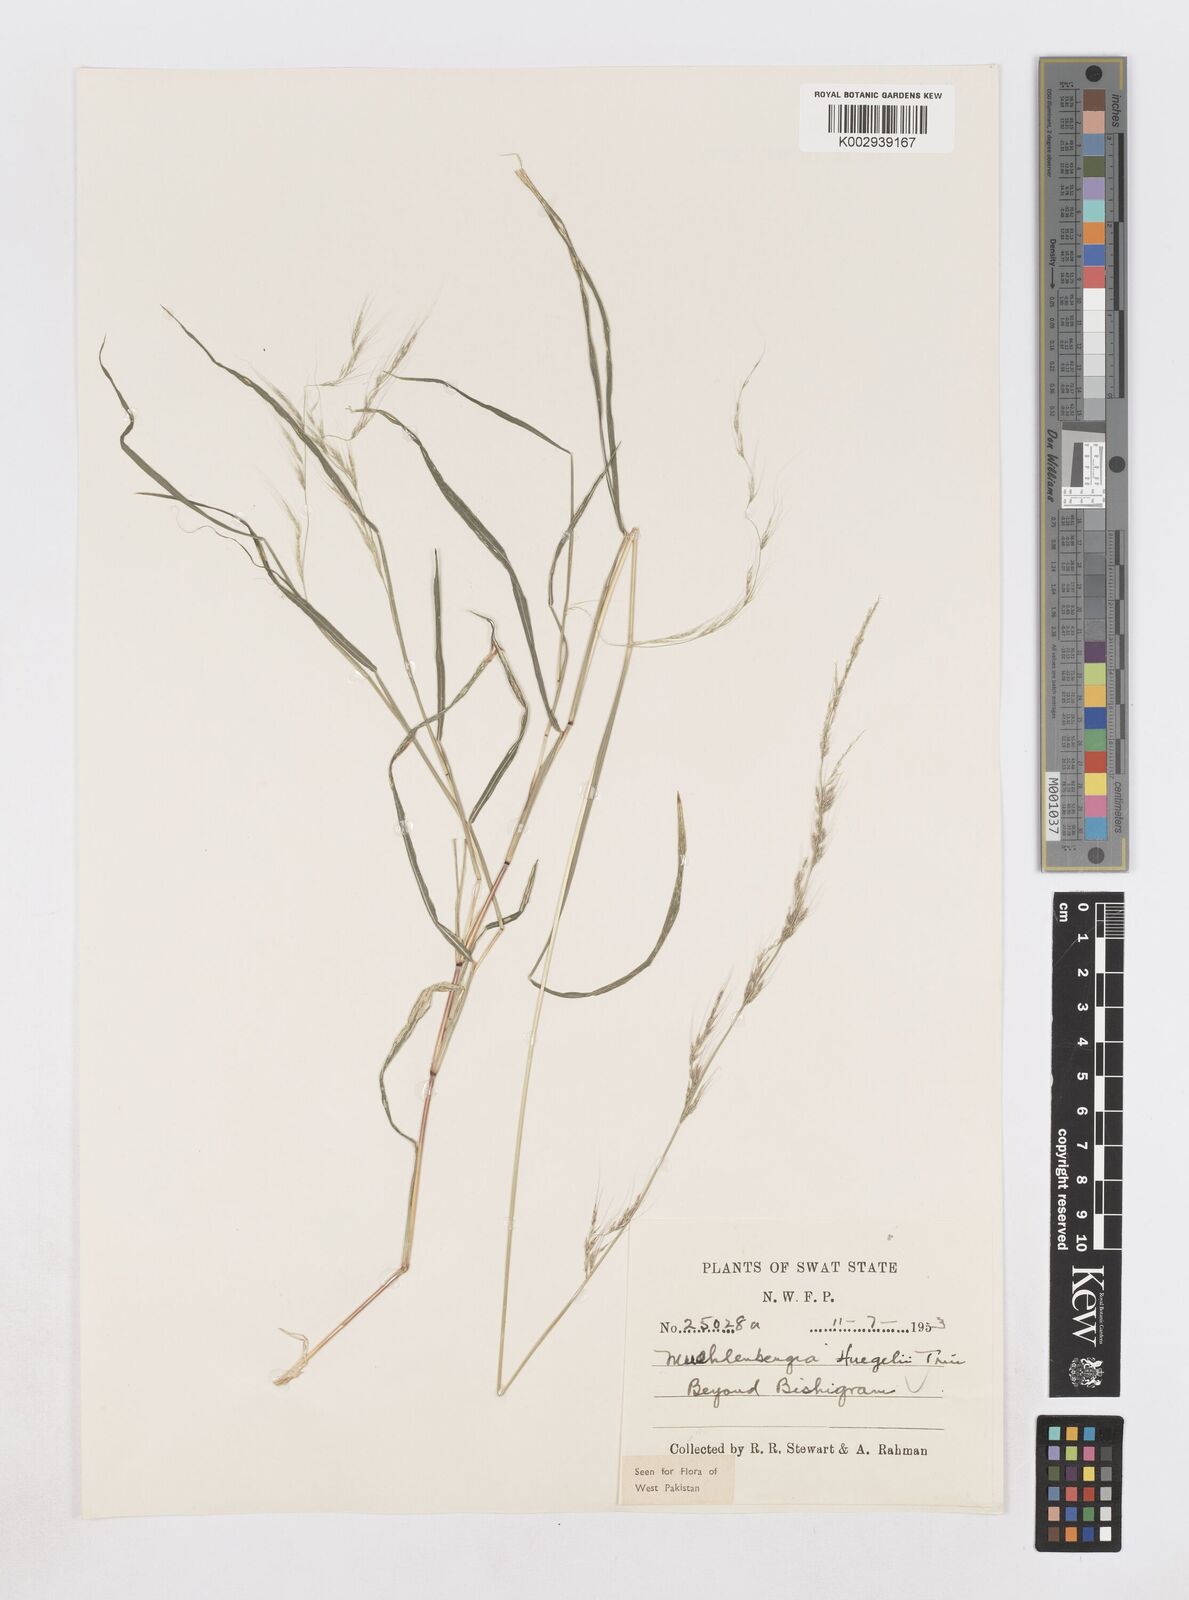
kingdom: Plantae
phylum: Tracheophyta
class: Liliopsida
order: Poales
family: Poaceae
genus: Muhlenbergia
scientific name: Muhlenbergia huegelii
